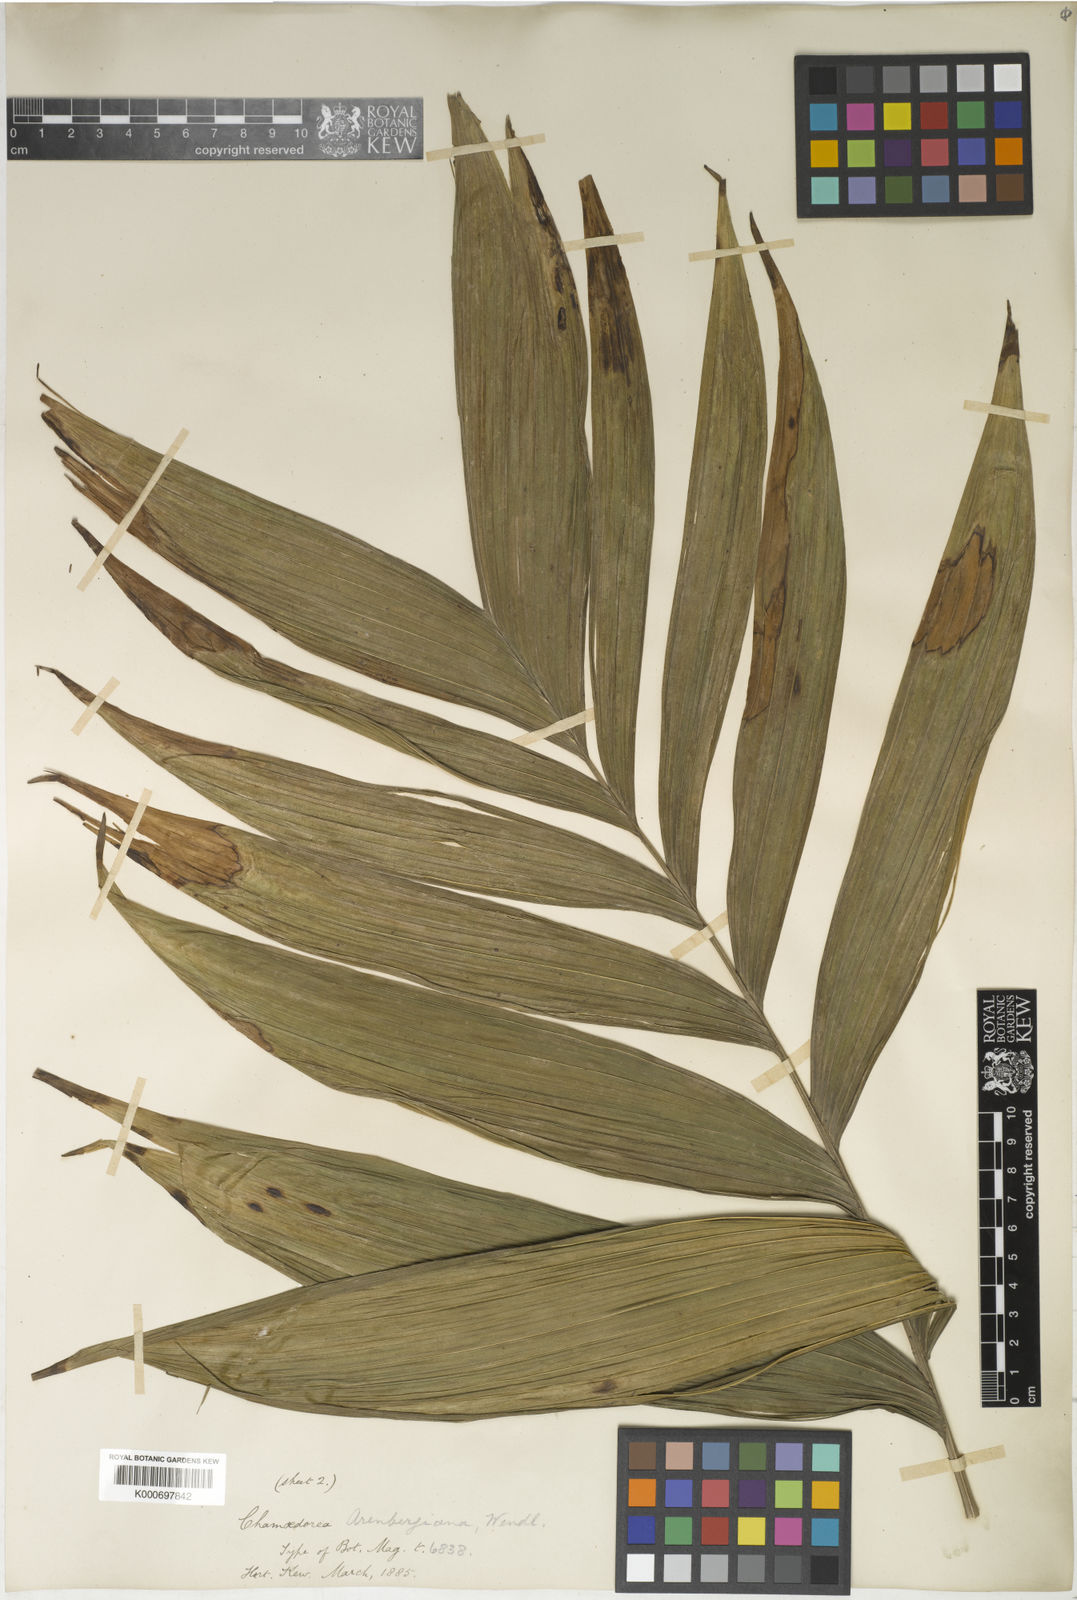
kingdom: Plantae
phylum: Tracheophyta
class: Liliopsida
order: Arecales
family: Arecaceae
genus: Chamaedorea
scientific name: Chamaedorea arenbergiana
